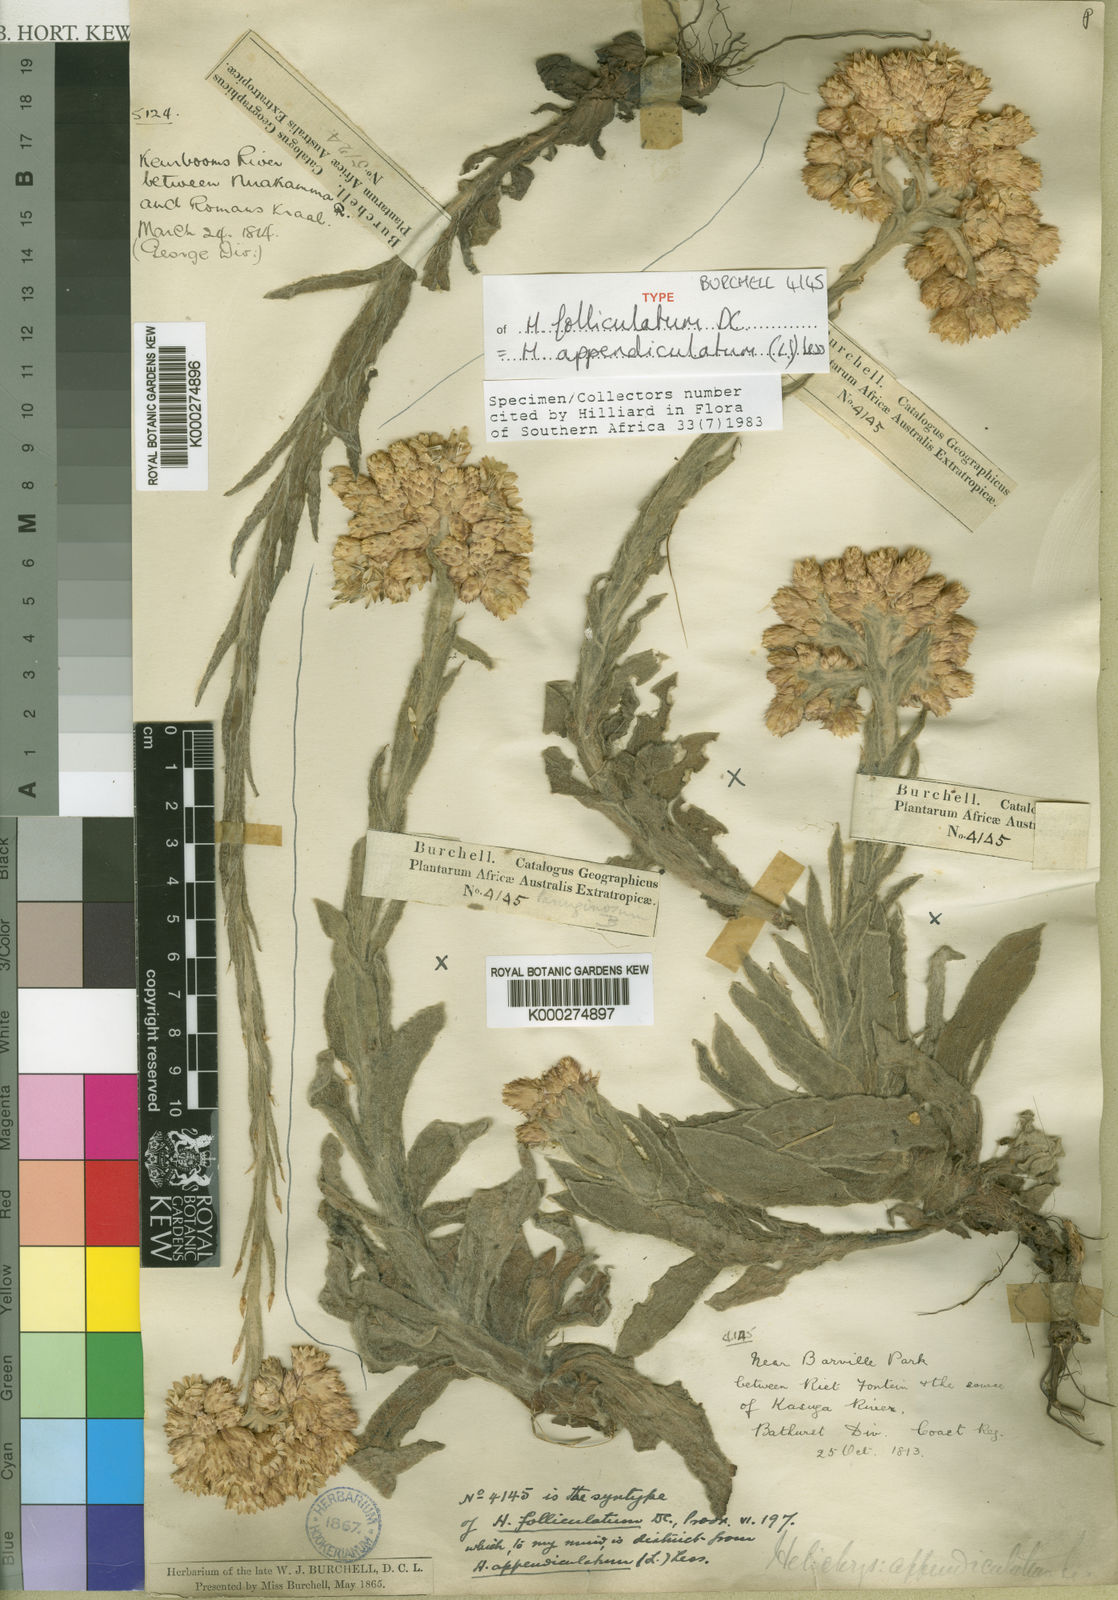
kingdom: Plantae
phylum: Tracheophyta
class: Magnoliopsida
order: Asterales
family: Asteraceae
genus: Helichrysum
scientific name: Helichrysum appendiculatum
